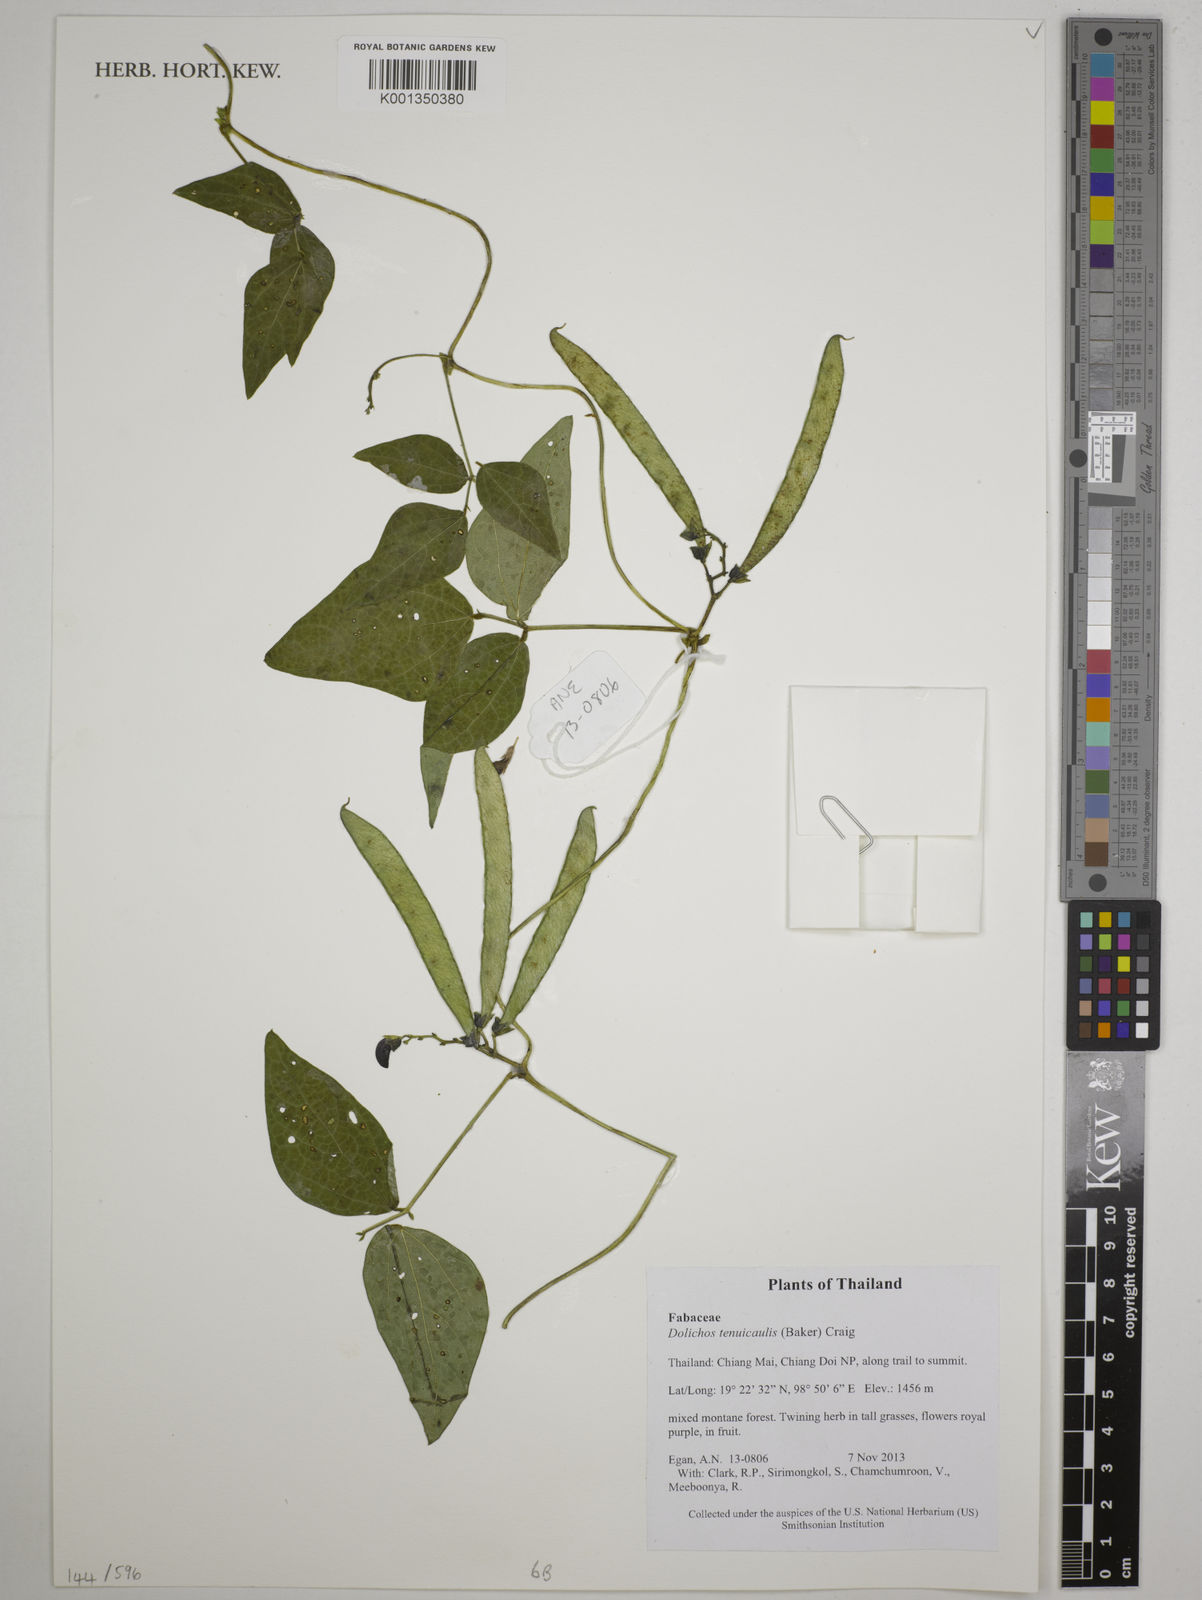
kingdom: Plantae
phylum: Tracheophyta
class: Magnoliopsida
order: Fabales
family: Fabaceae
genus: Dolichos
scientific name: Dolichos tenuicaulis
